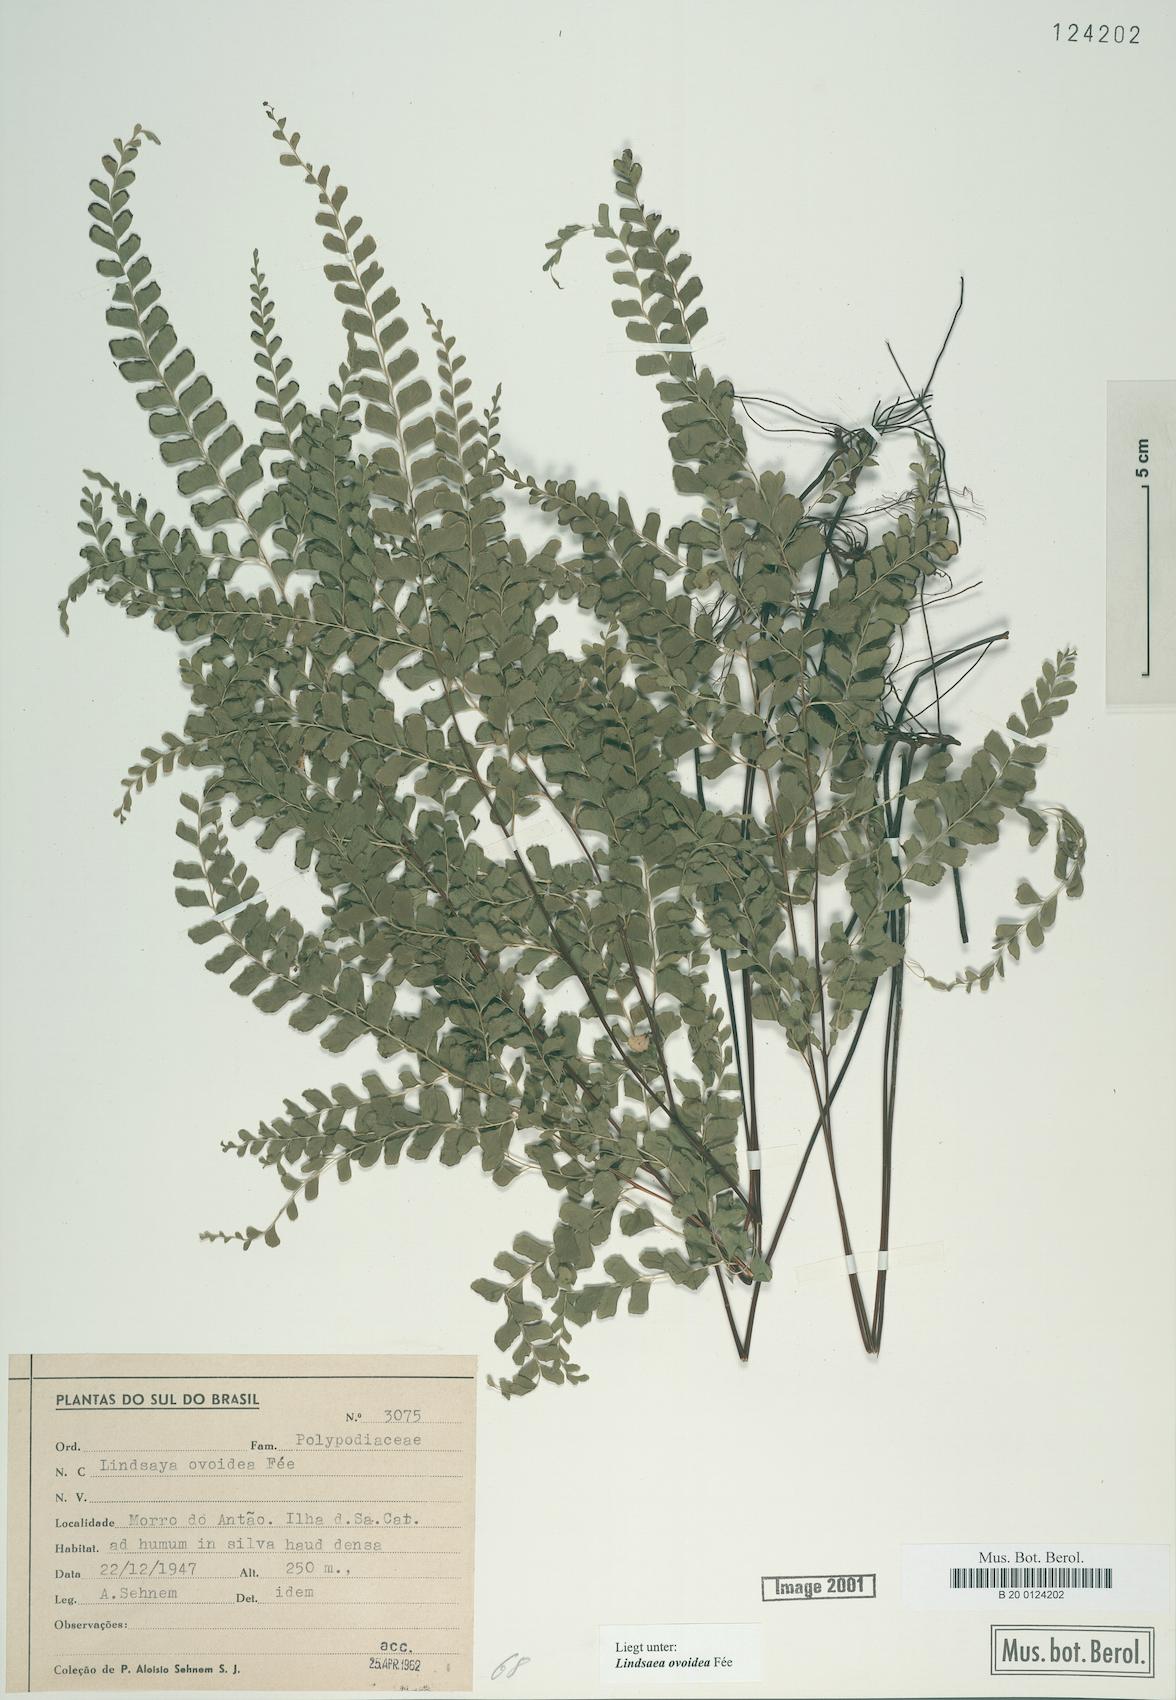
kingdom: Plantae
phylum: Tracheophyta
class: Polypodiopsida
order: Polypodiales
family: Lindsaeaceae
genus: Lindsaea
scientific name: Lindsaea ovoidea
